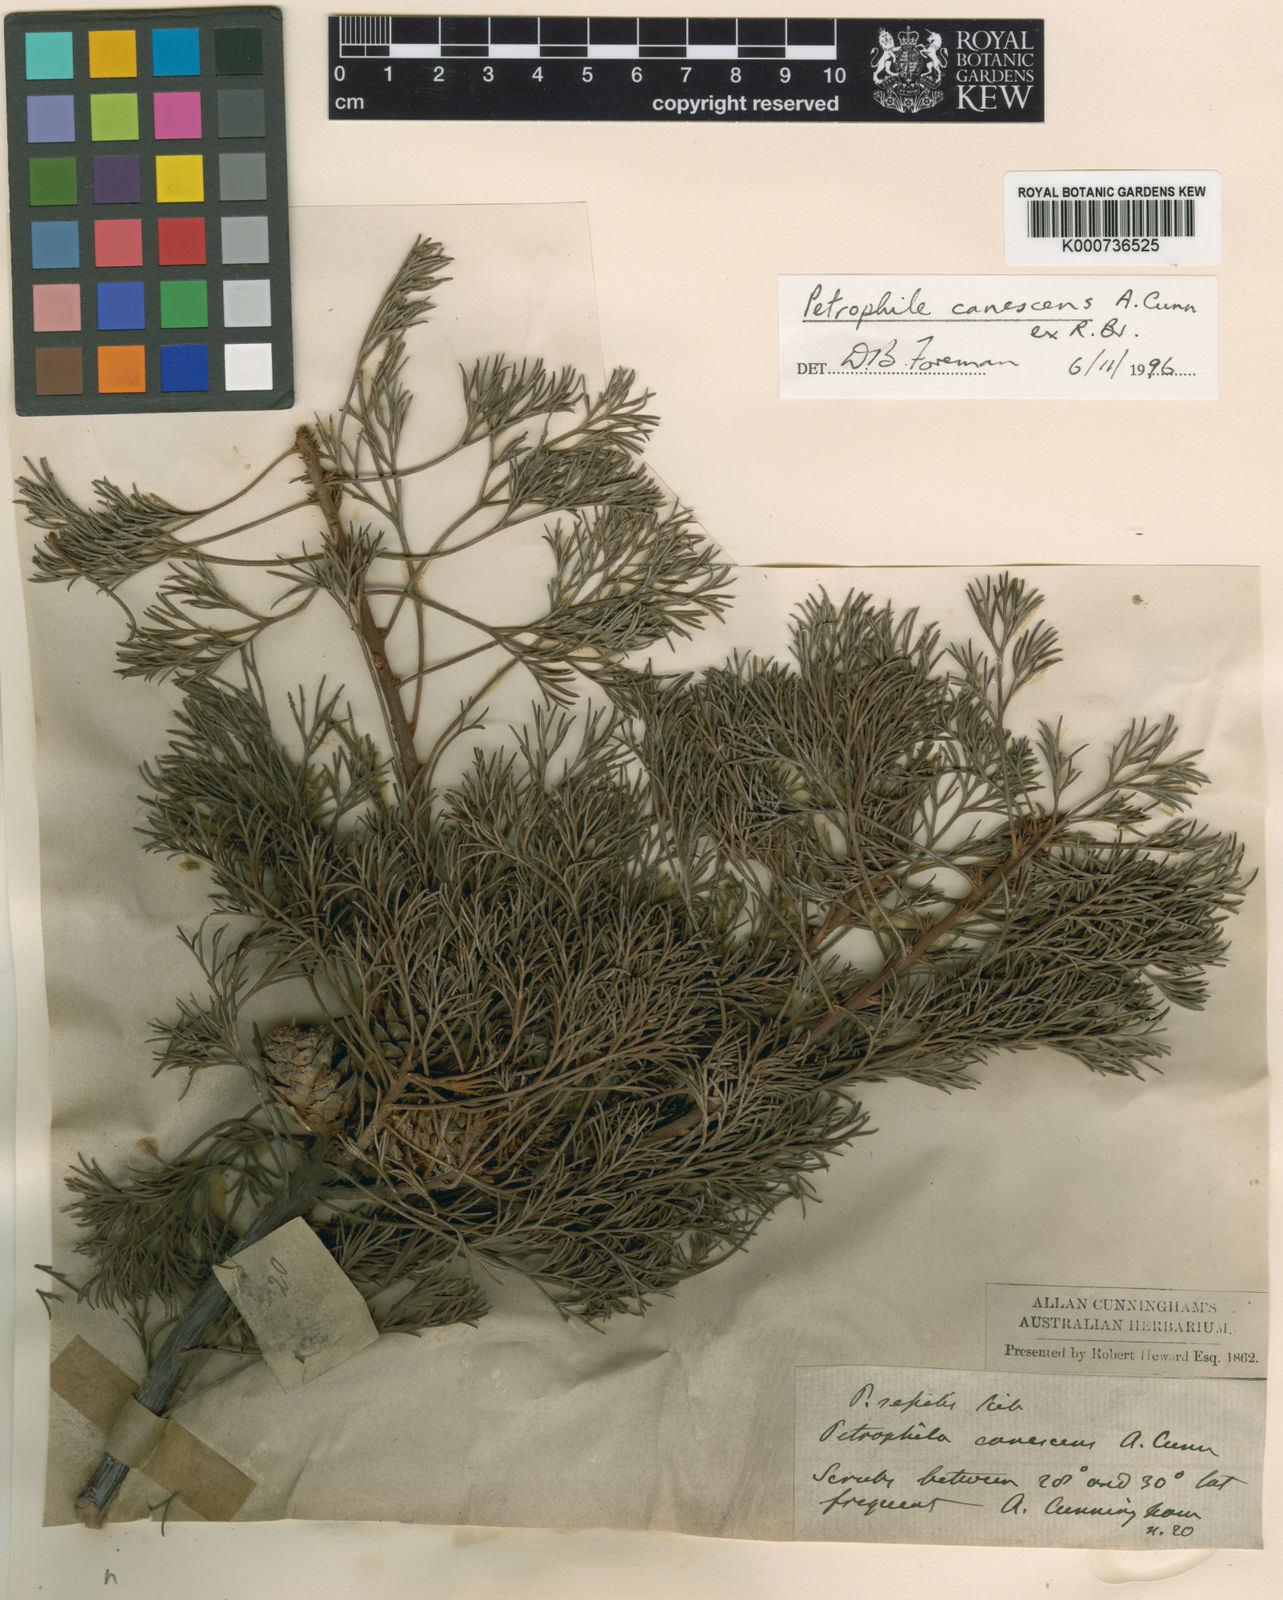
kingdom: Plantae
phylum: Tracheophyta
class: Magnoliopsida
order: Proteales
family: Proteaceae
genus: Petrophile
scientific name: Petrophile canescens
